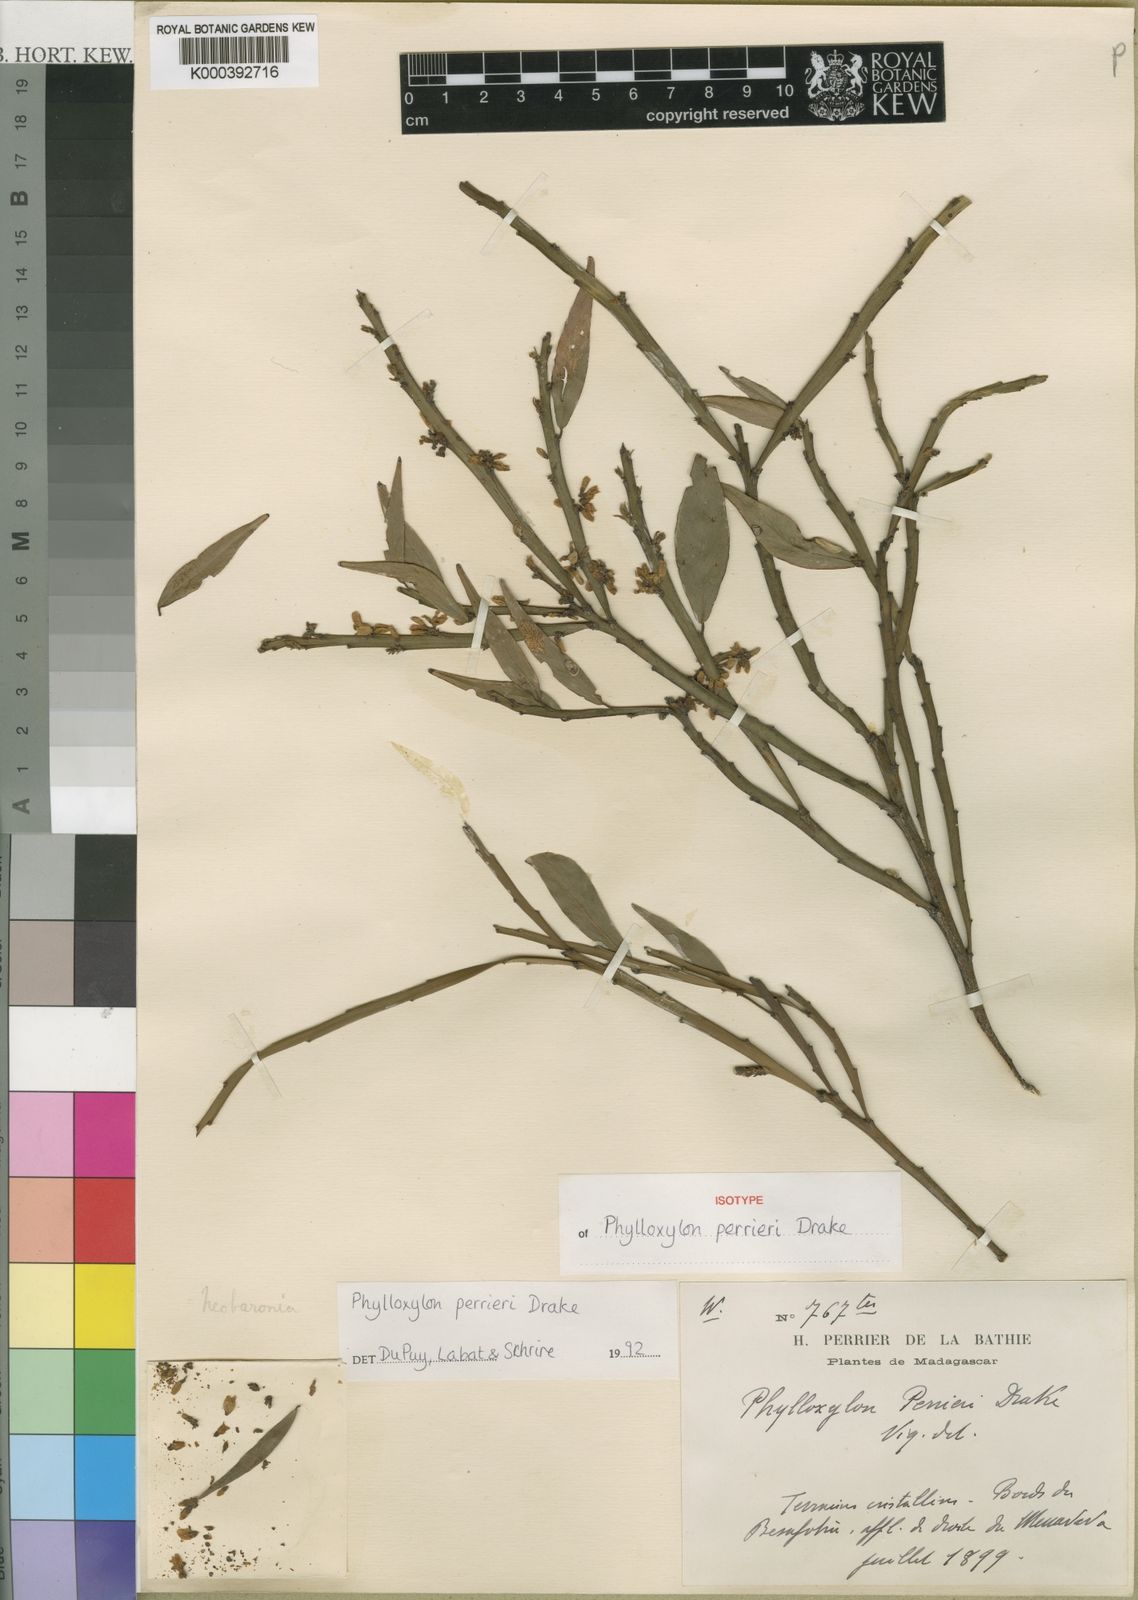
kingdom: Plantae
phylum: Tracheophyta
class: Magnoliopsida
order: Fabales
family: Fabaceae
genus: Phylloxylon
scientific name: Phylloxylon perrieri
